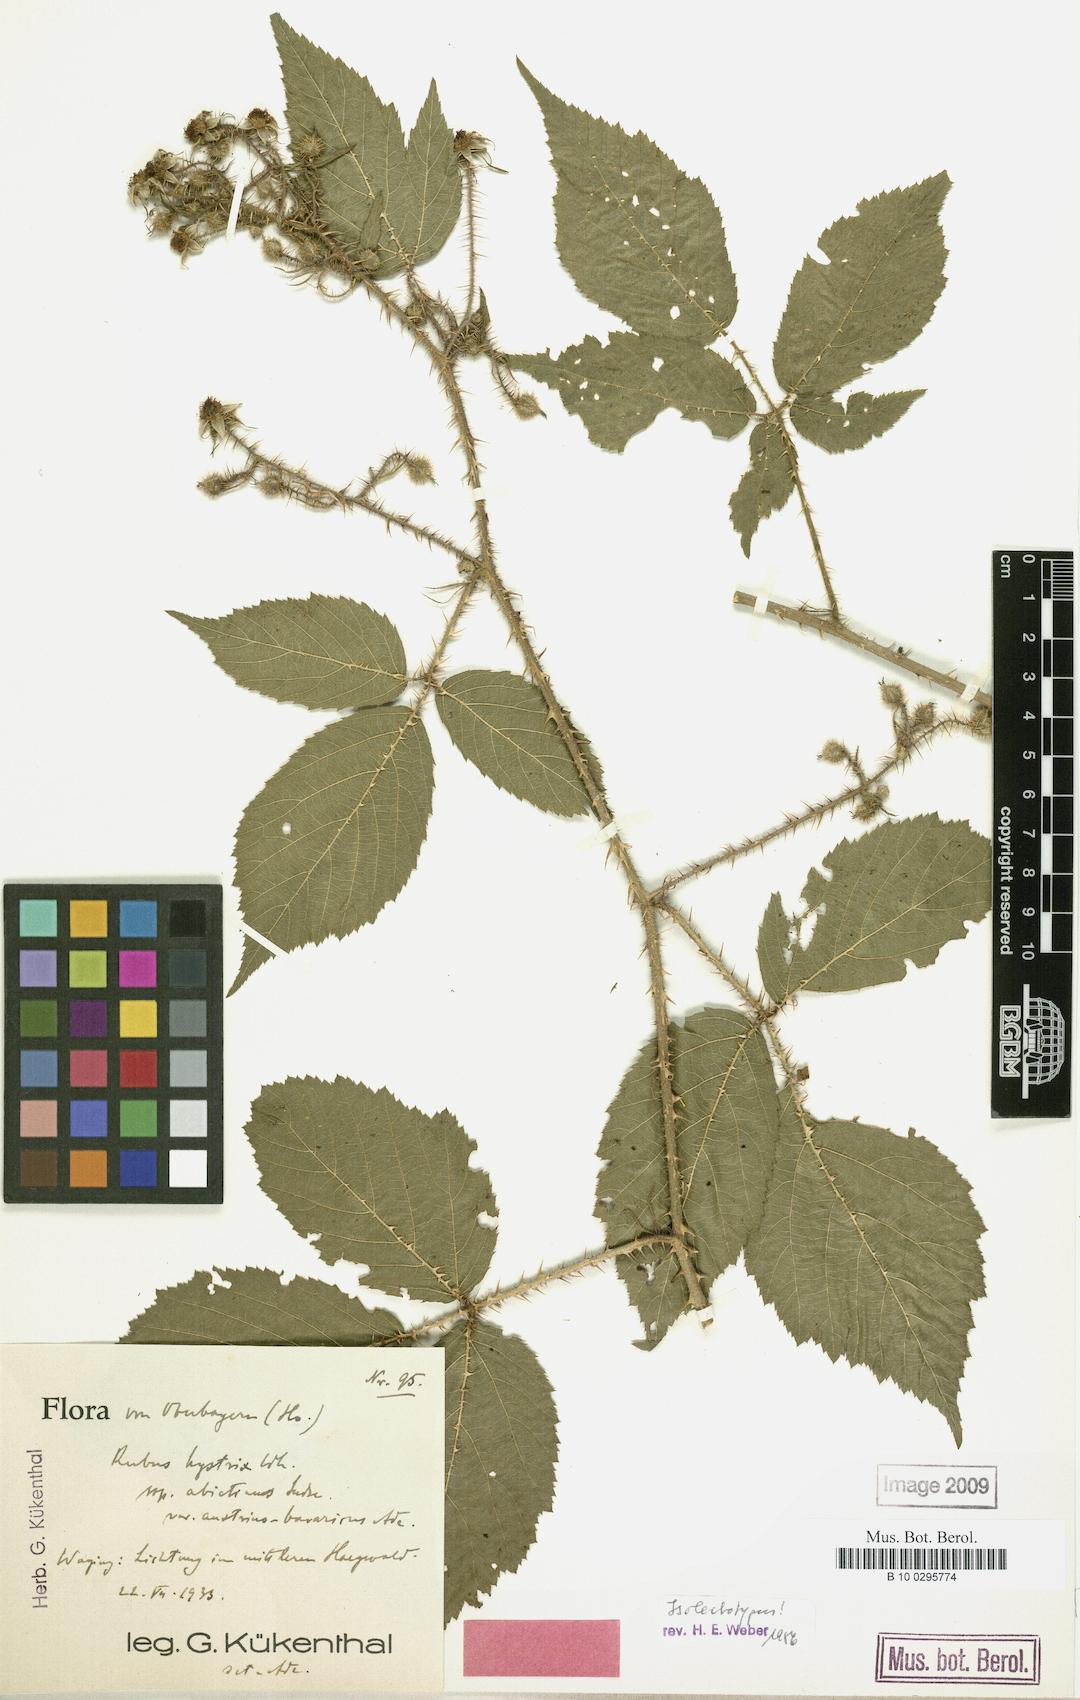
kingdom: Plantae
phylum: Tracheophyta
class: Magnoliopsida
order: Rosales
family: Rosaceae
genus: Rubus
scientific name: Rubus
